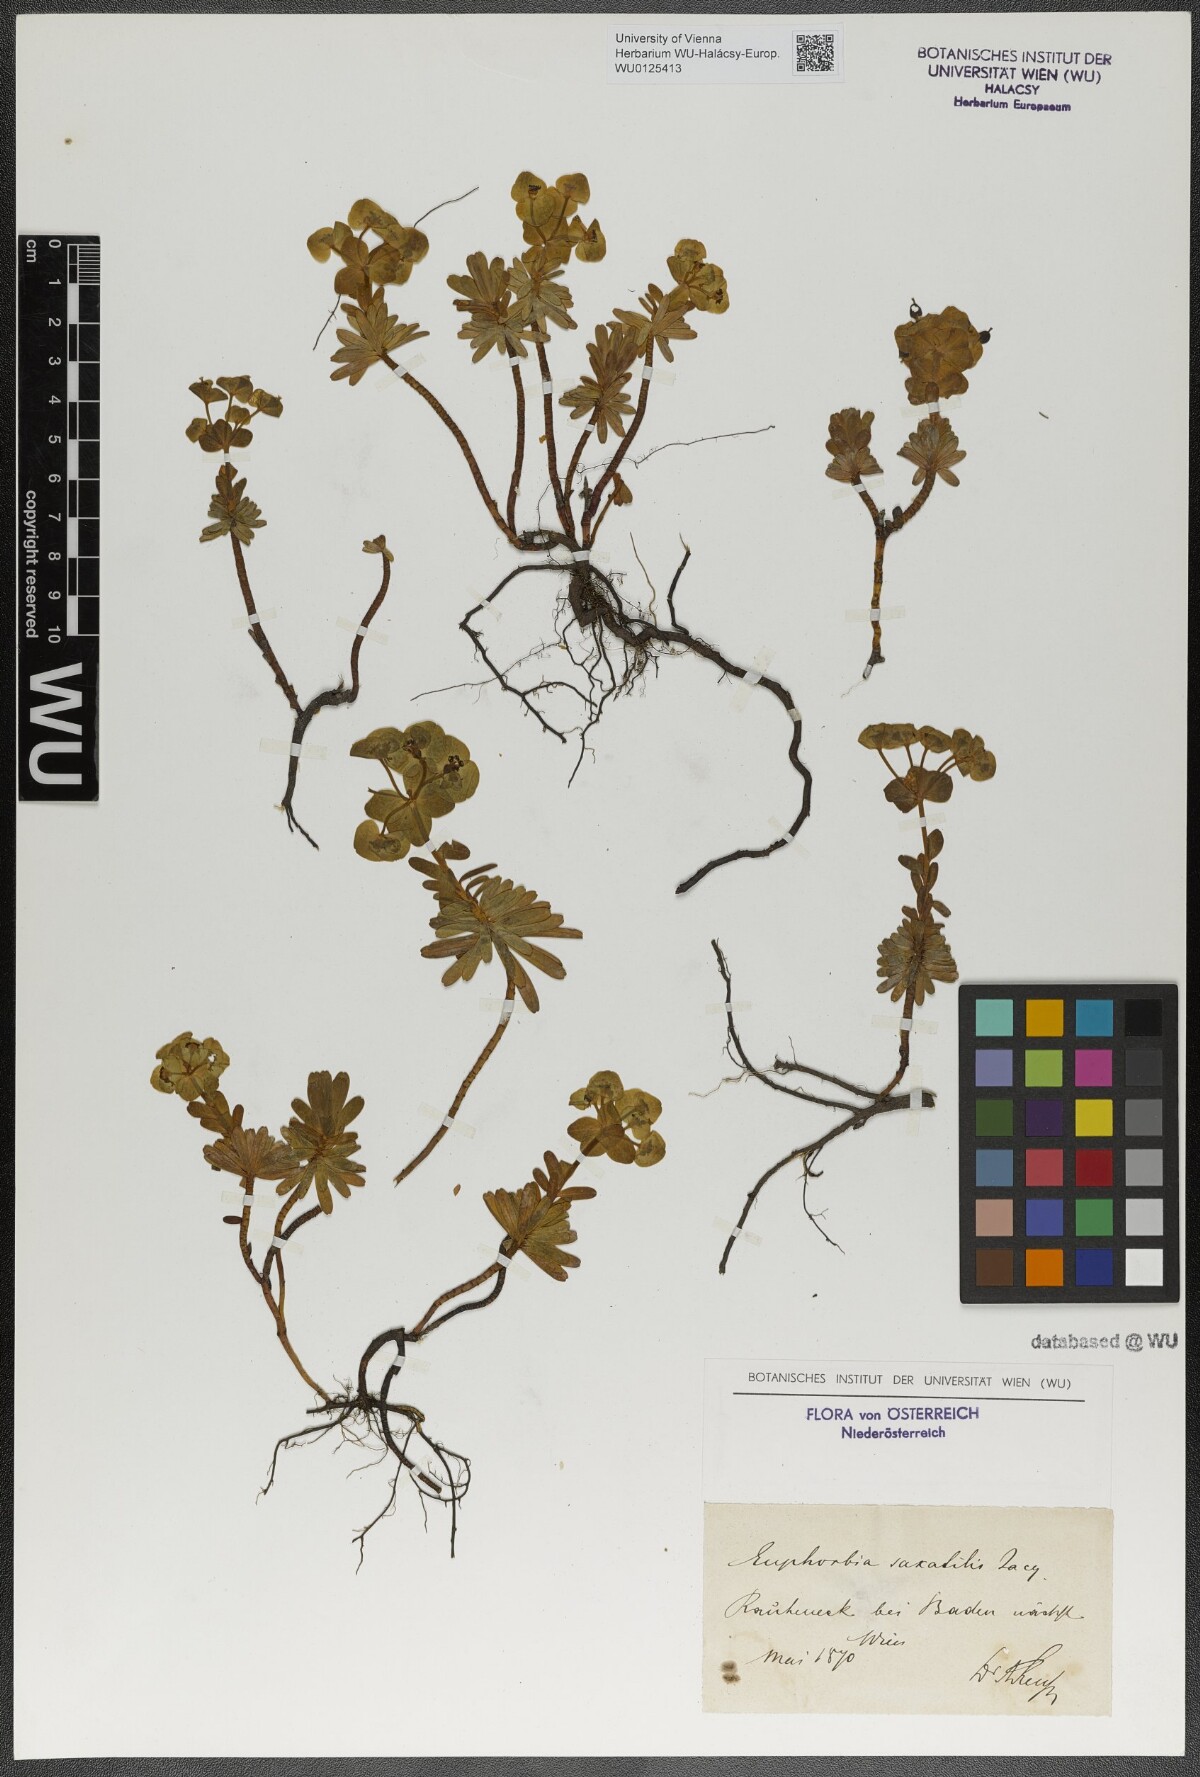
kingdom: Plantae
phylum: Tracheophyta
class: Magnoliopsida
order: Malpighiales
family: Euphorbiaceae
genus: Euphorbia
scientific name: Euphorbia saxatilis
